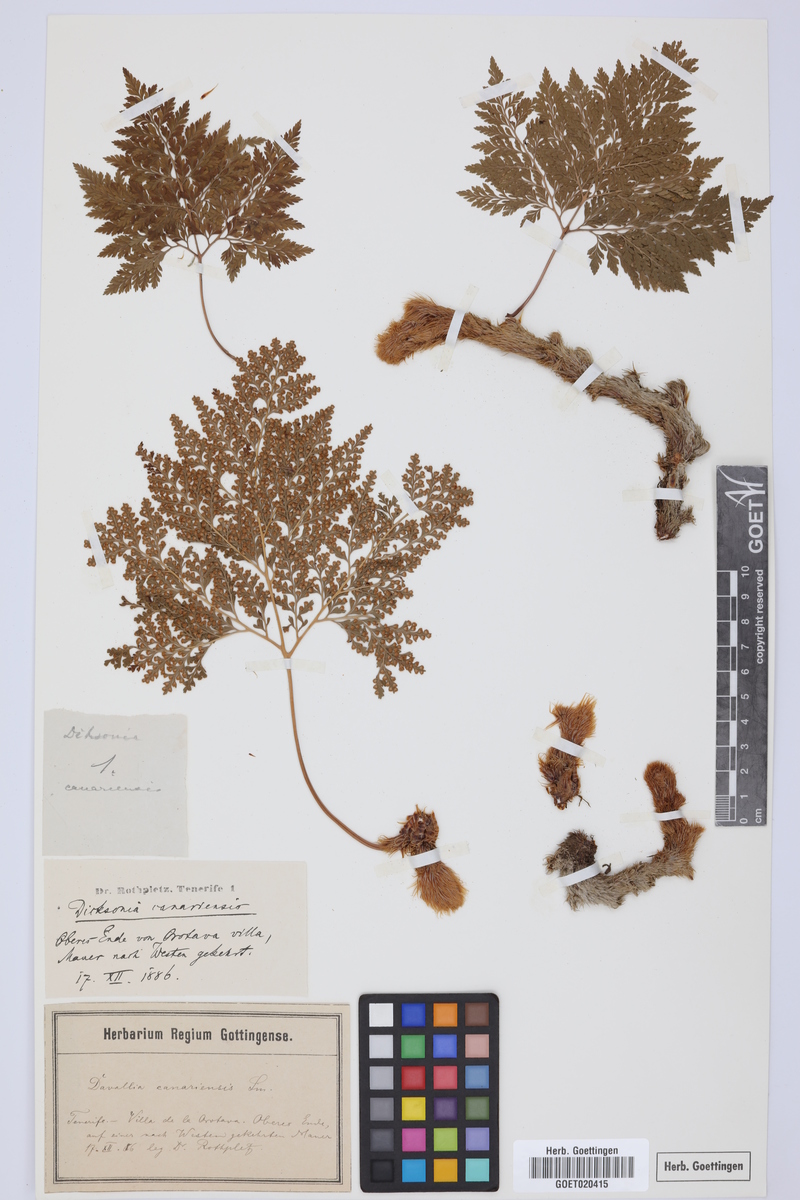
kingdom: Plantae
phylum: Tracheophyta
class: Polypodiopsida
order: Polypodiales
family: Davalliaceae
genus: Davallia
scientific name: Davallia canariensis
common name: Hare's-foot fern
